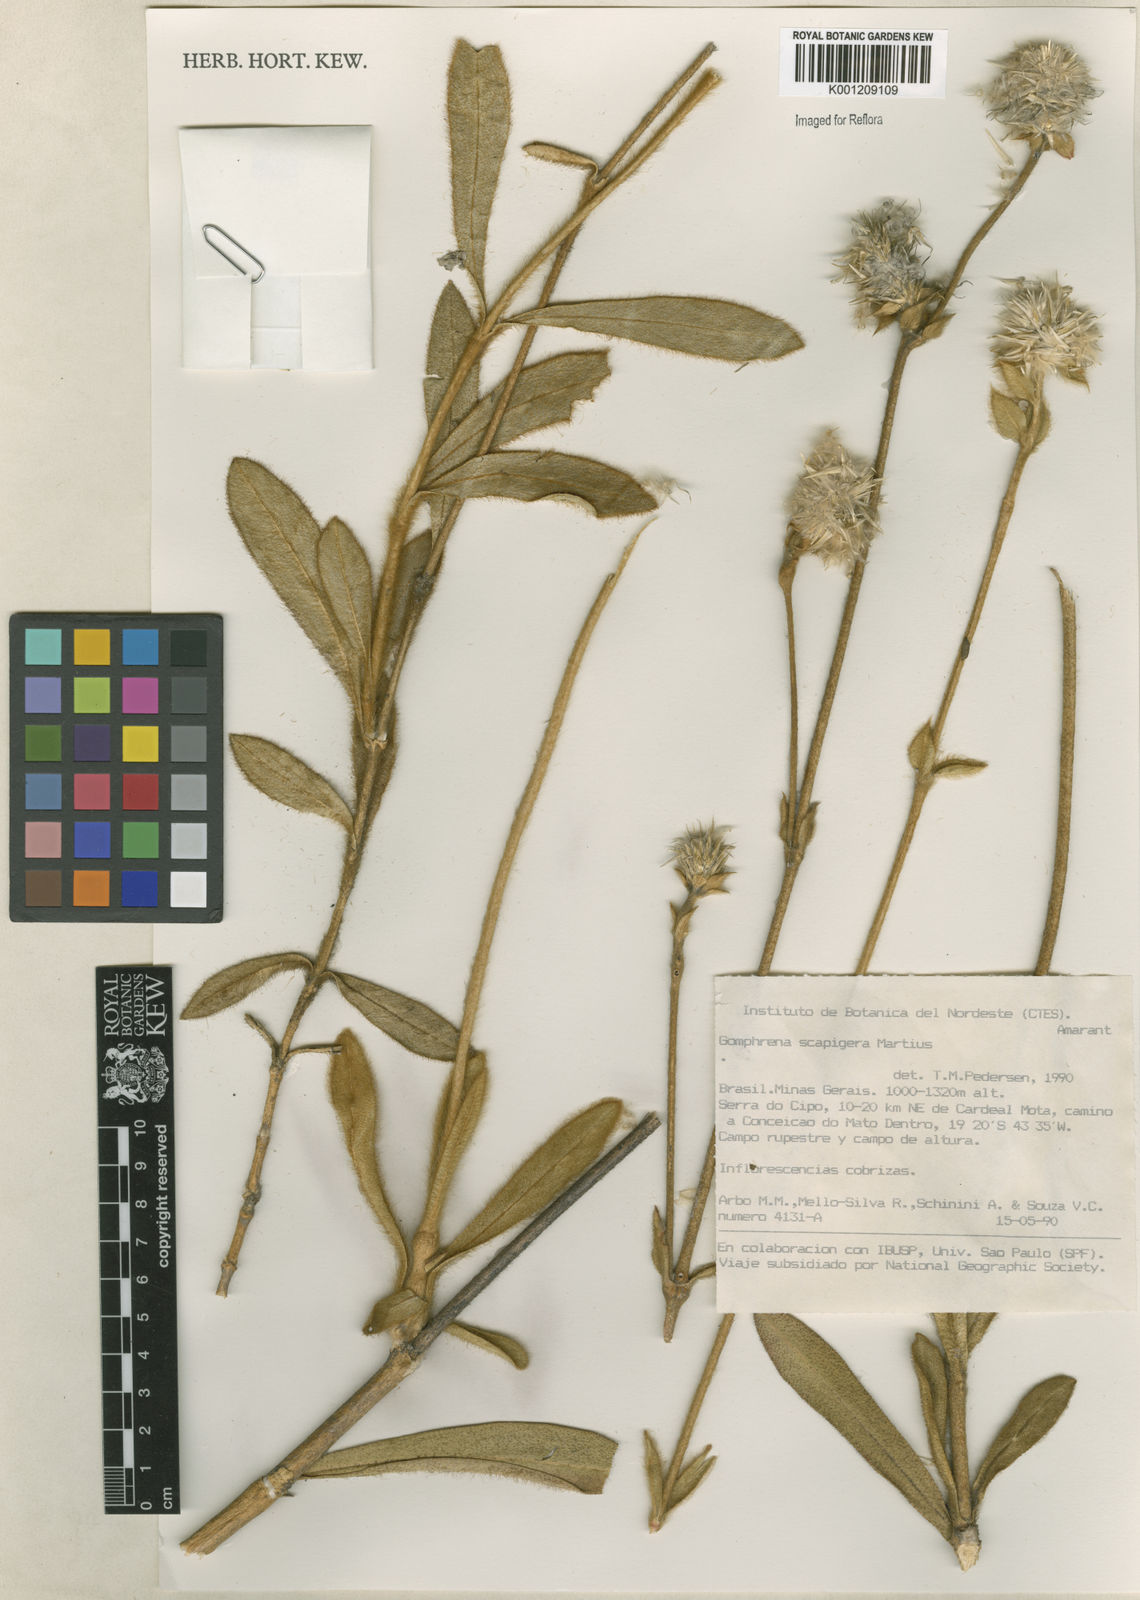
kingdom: Plantae
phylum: Tracheophyta
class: Magnoliopsida
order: Caryophyllales
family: Amaranthaceae
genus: Gomphrena
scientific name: Gomphrena scapigera
